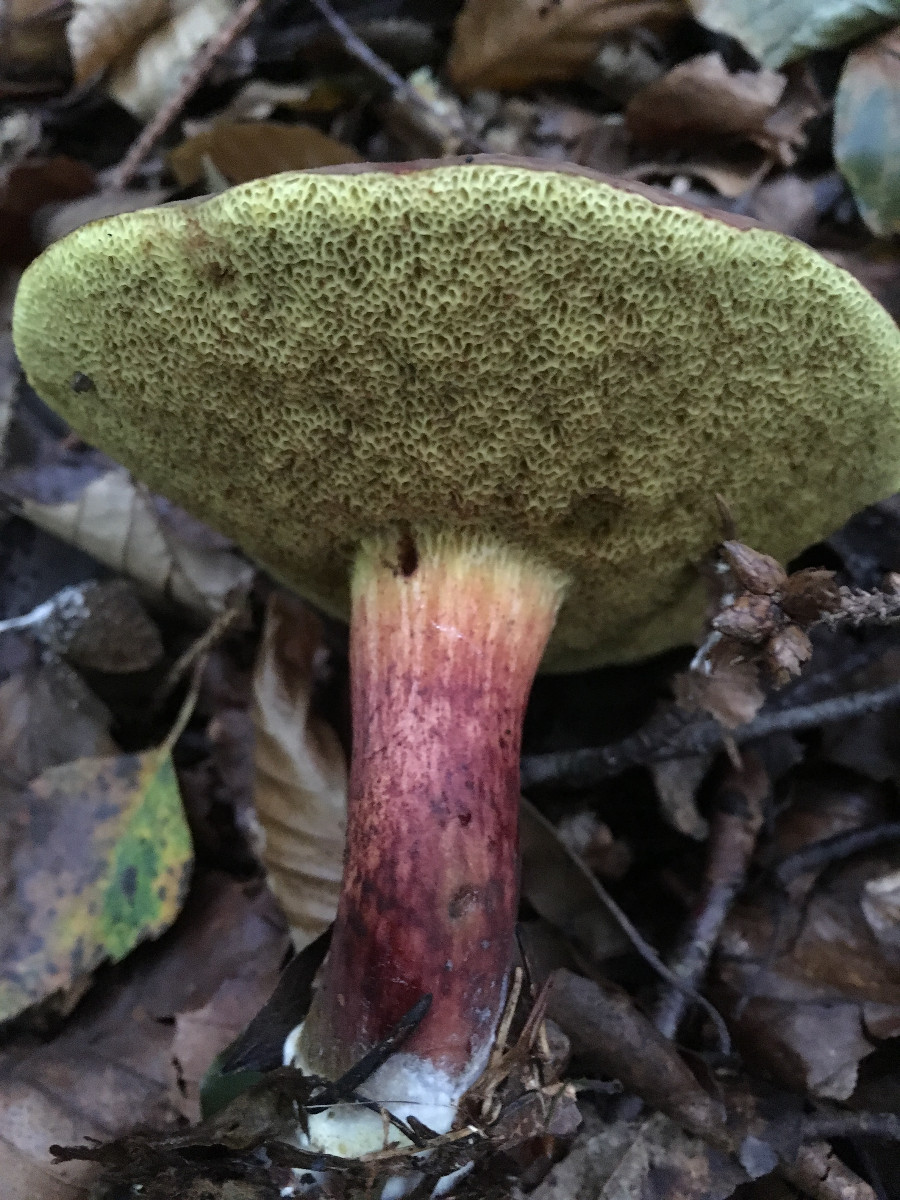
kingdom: Fungi
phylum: Basidiomycota
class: Agaricomycetes
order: Boletales
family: Boletaceae
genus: Xerocomellus
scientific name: Xerocomellus pruinatus
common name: dugget rørhat
